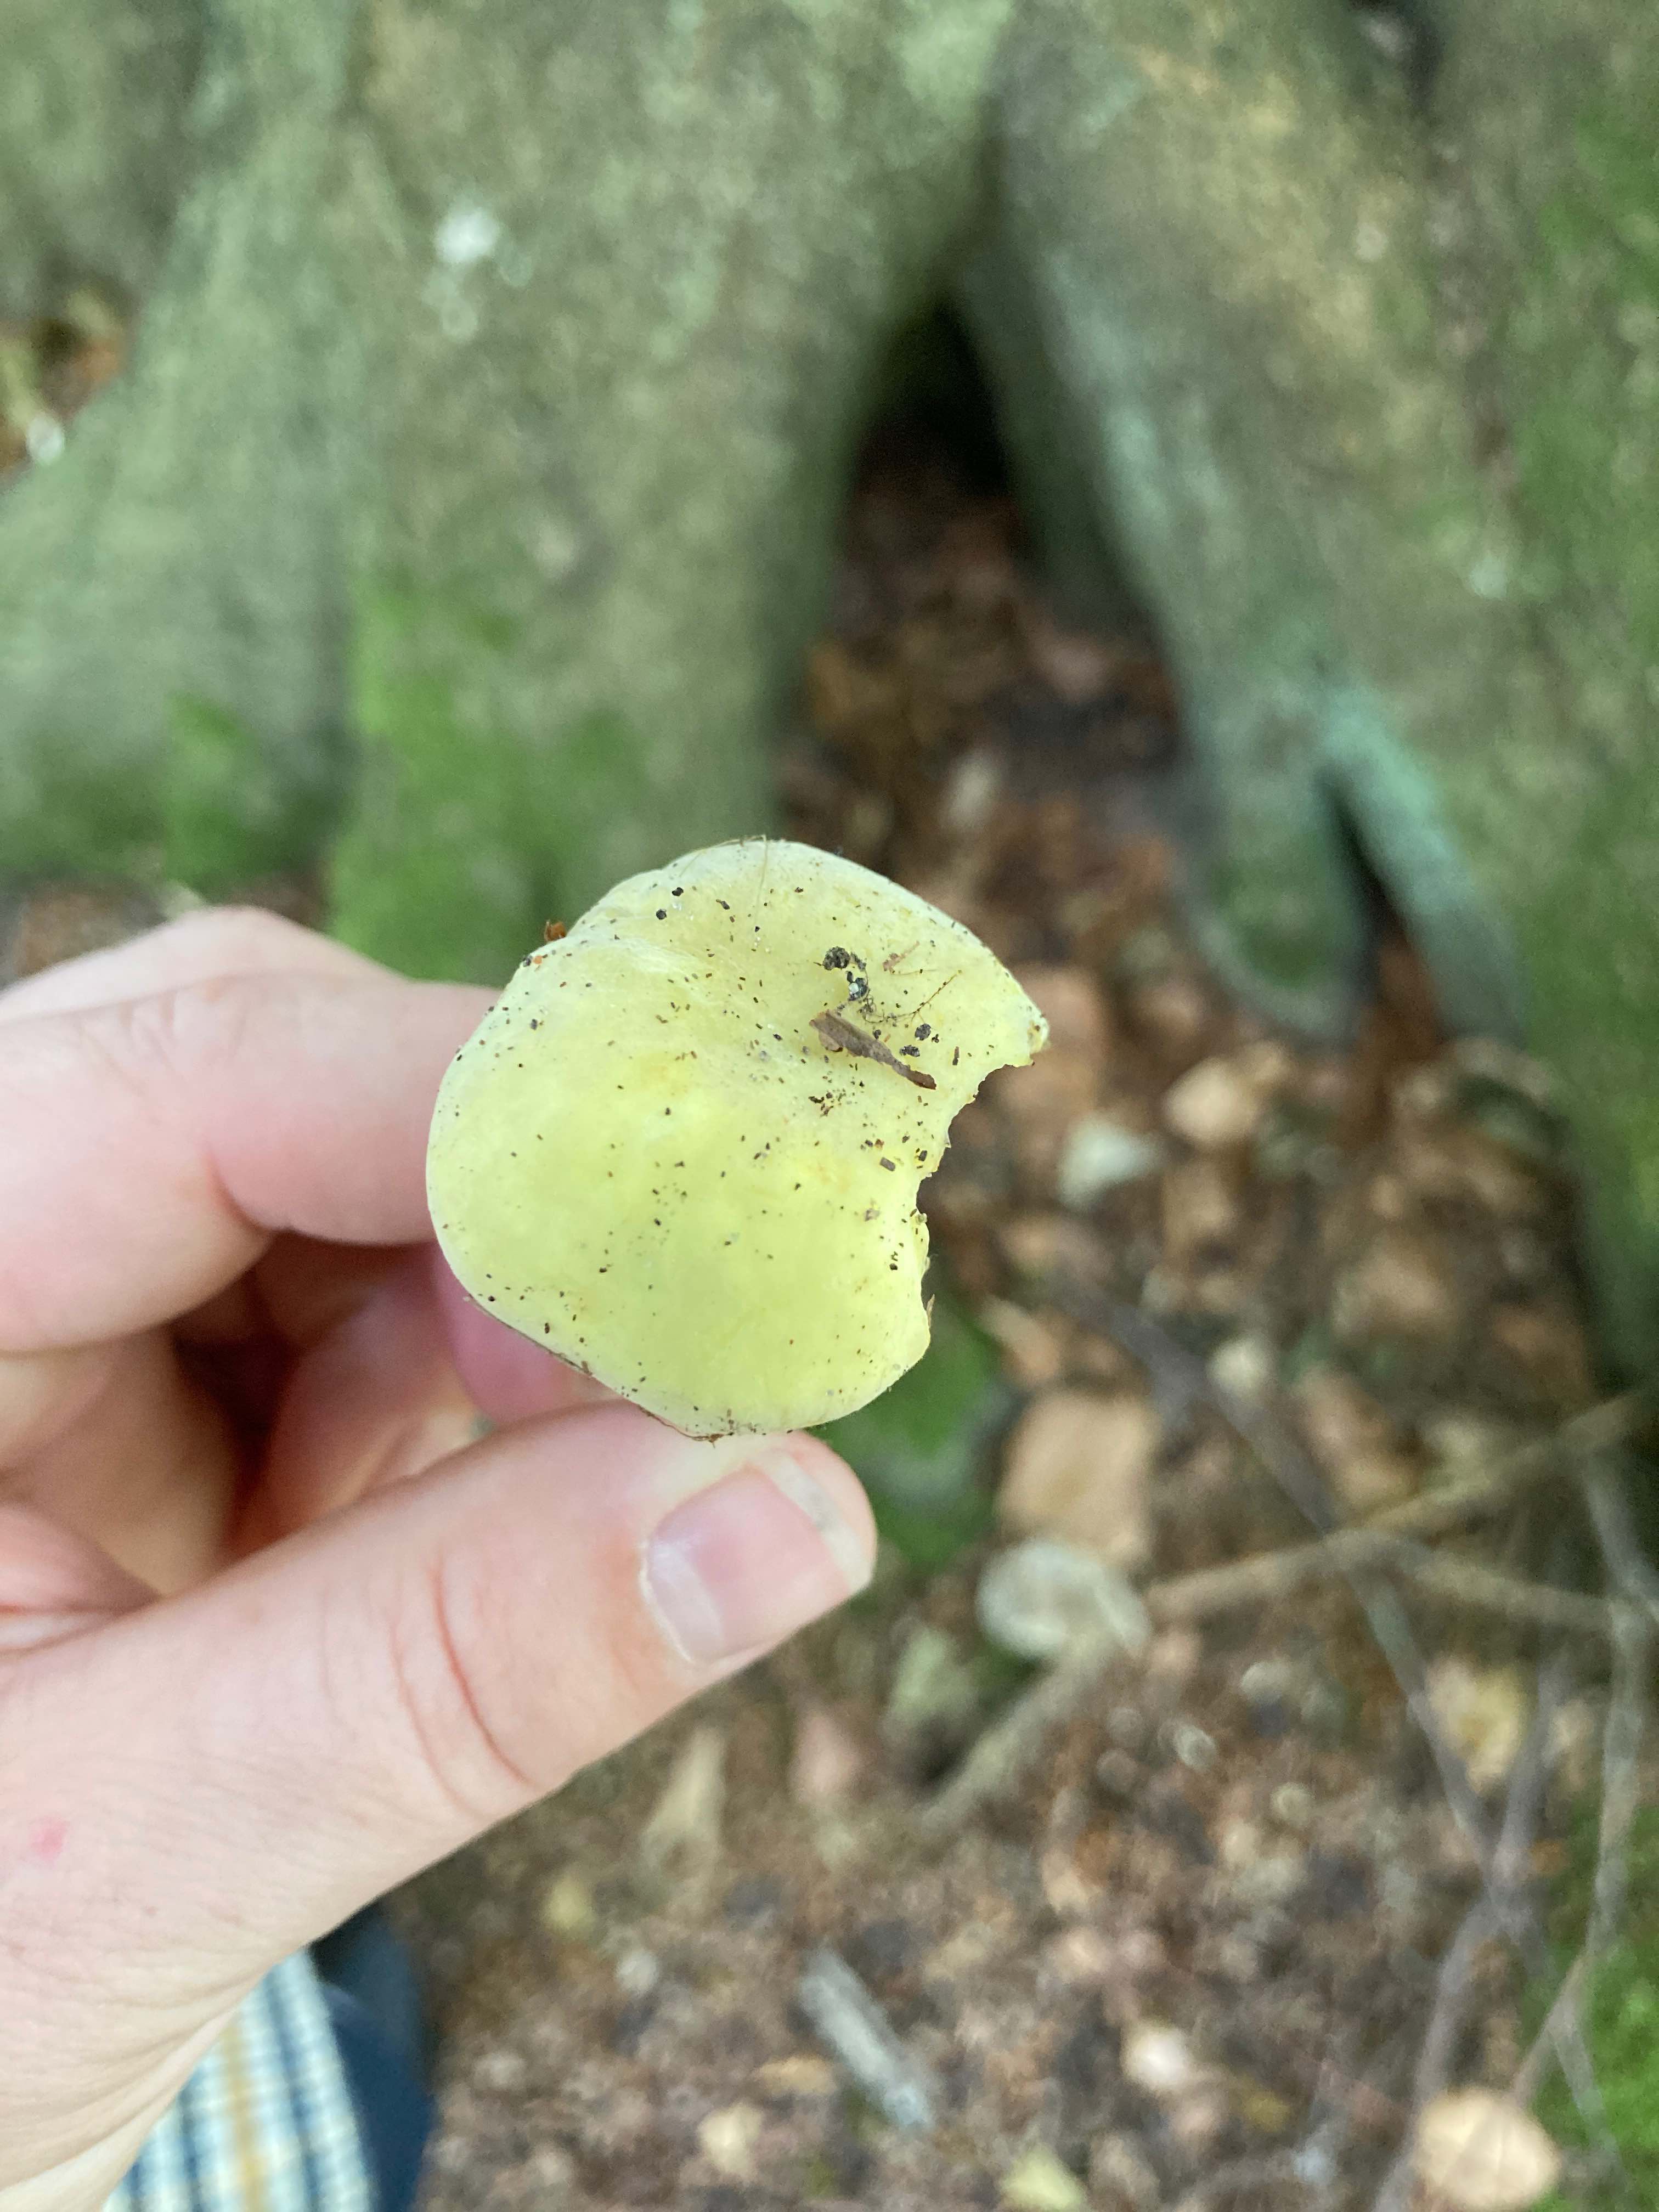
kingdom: Fungi
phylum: Basidiomycota
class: Agaricomycetes
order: Russulales
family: Russulaceae
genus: Russula
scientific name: Russula violeipes
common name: ferskengul skørhat
